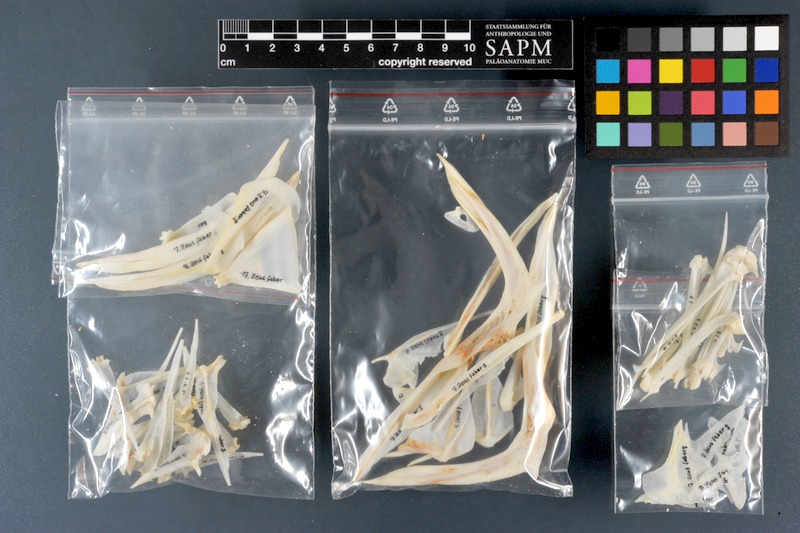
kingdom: Animalia
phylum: Chordata
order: Zeiformes
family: Zeidae
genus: Zeus
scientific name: Zeus faber
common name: John dory
